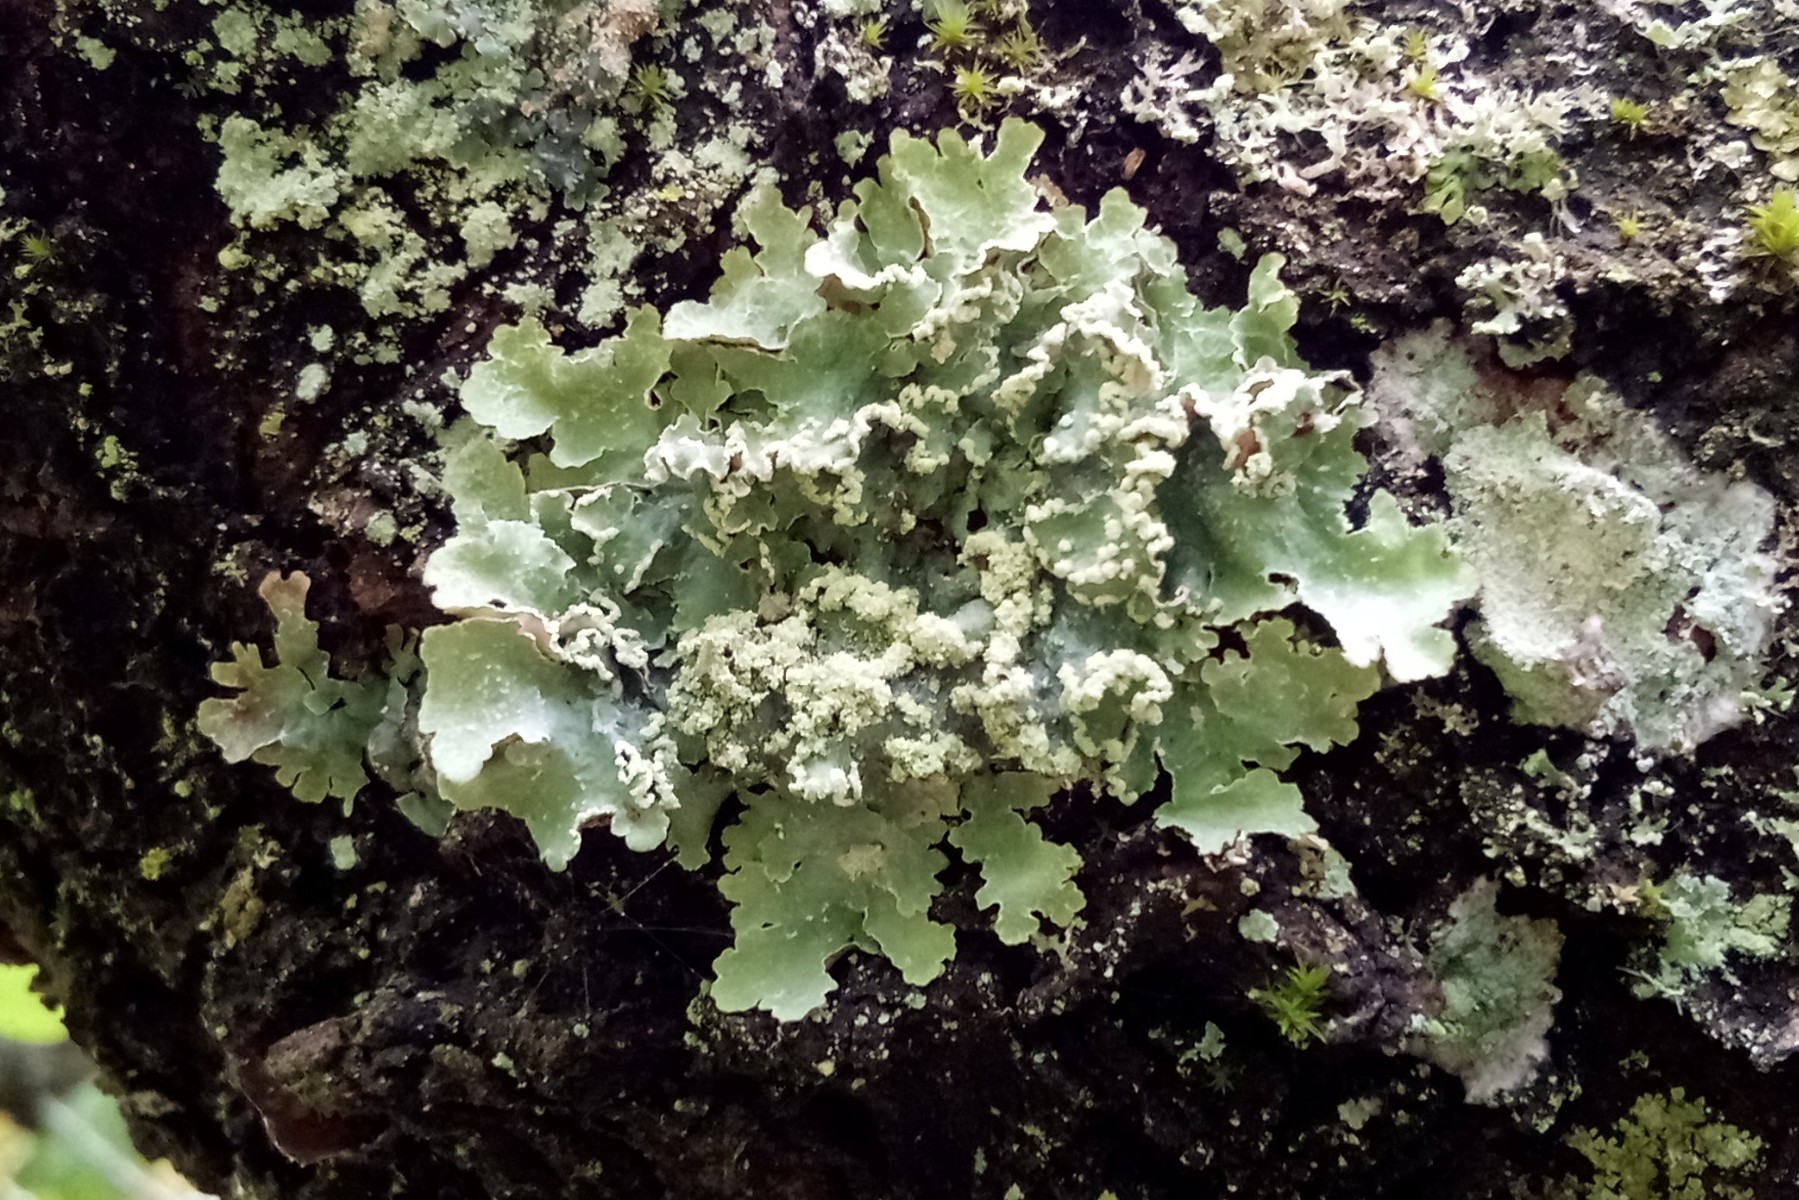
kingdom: Fungi
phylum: Ascomycota
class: Lecanoromycetes
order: Lecanorales
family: Parmeliaceae
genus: Punctelia
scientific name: Punctelia jeckeri
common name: randstøvet skållav
